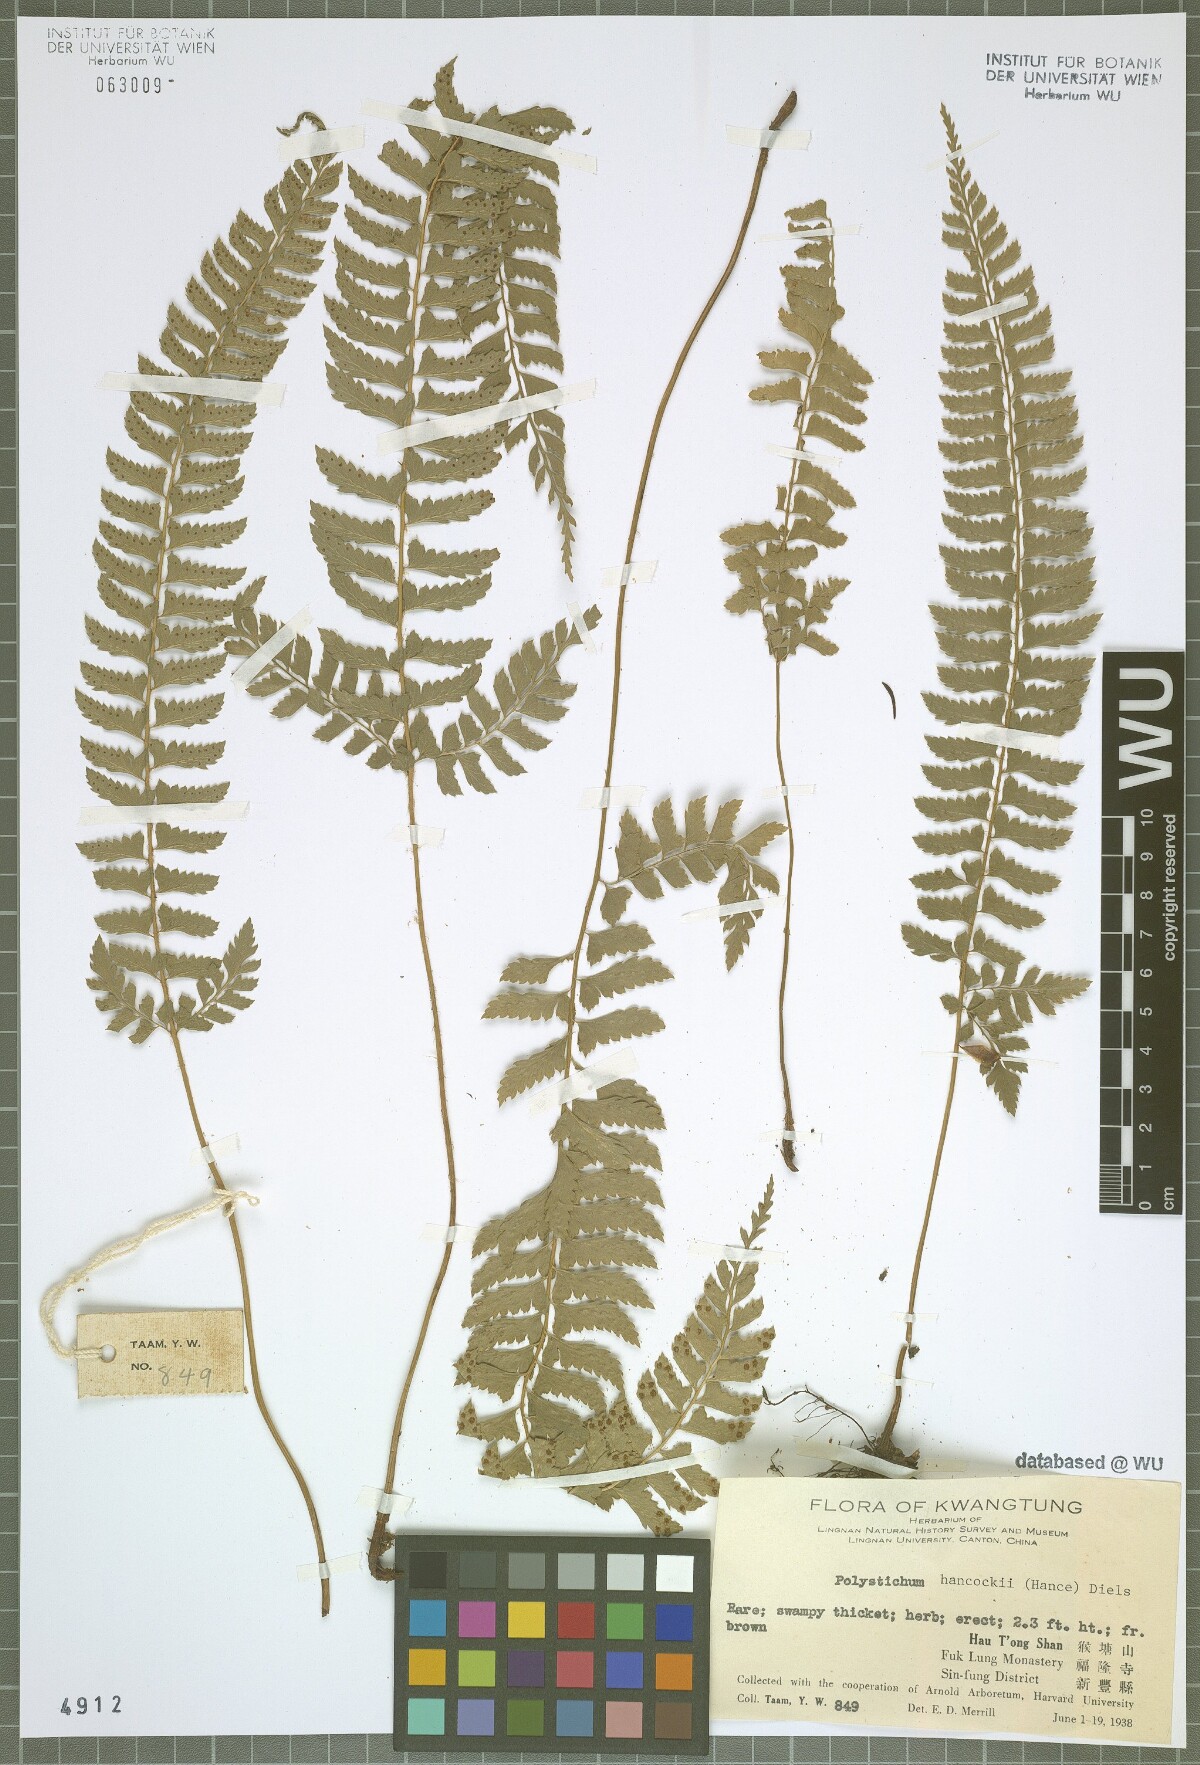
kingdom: Plantae
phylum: Tracheophyta
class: Polypodiopsida
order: Polypodiales
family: Dryopteridaceae
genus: Polystichum
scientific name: Polystichum hancockii
